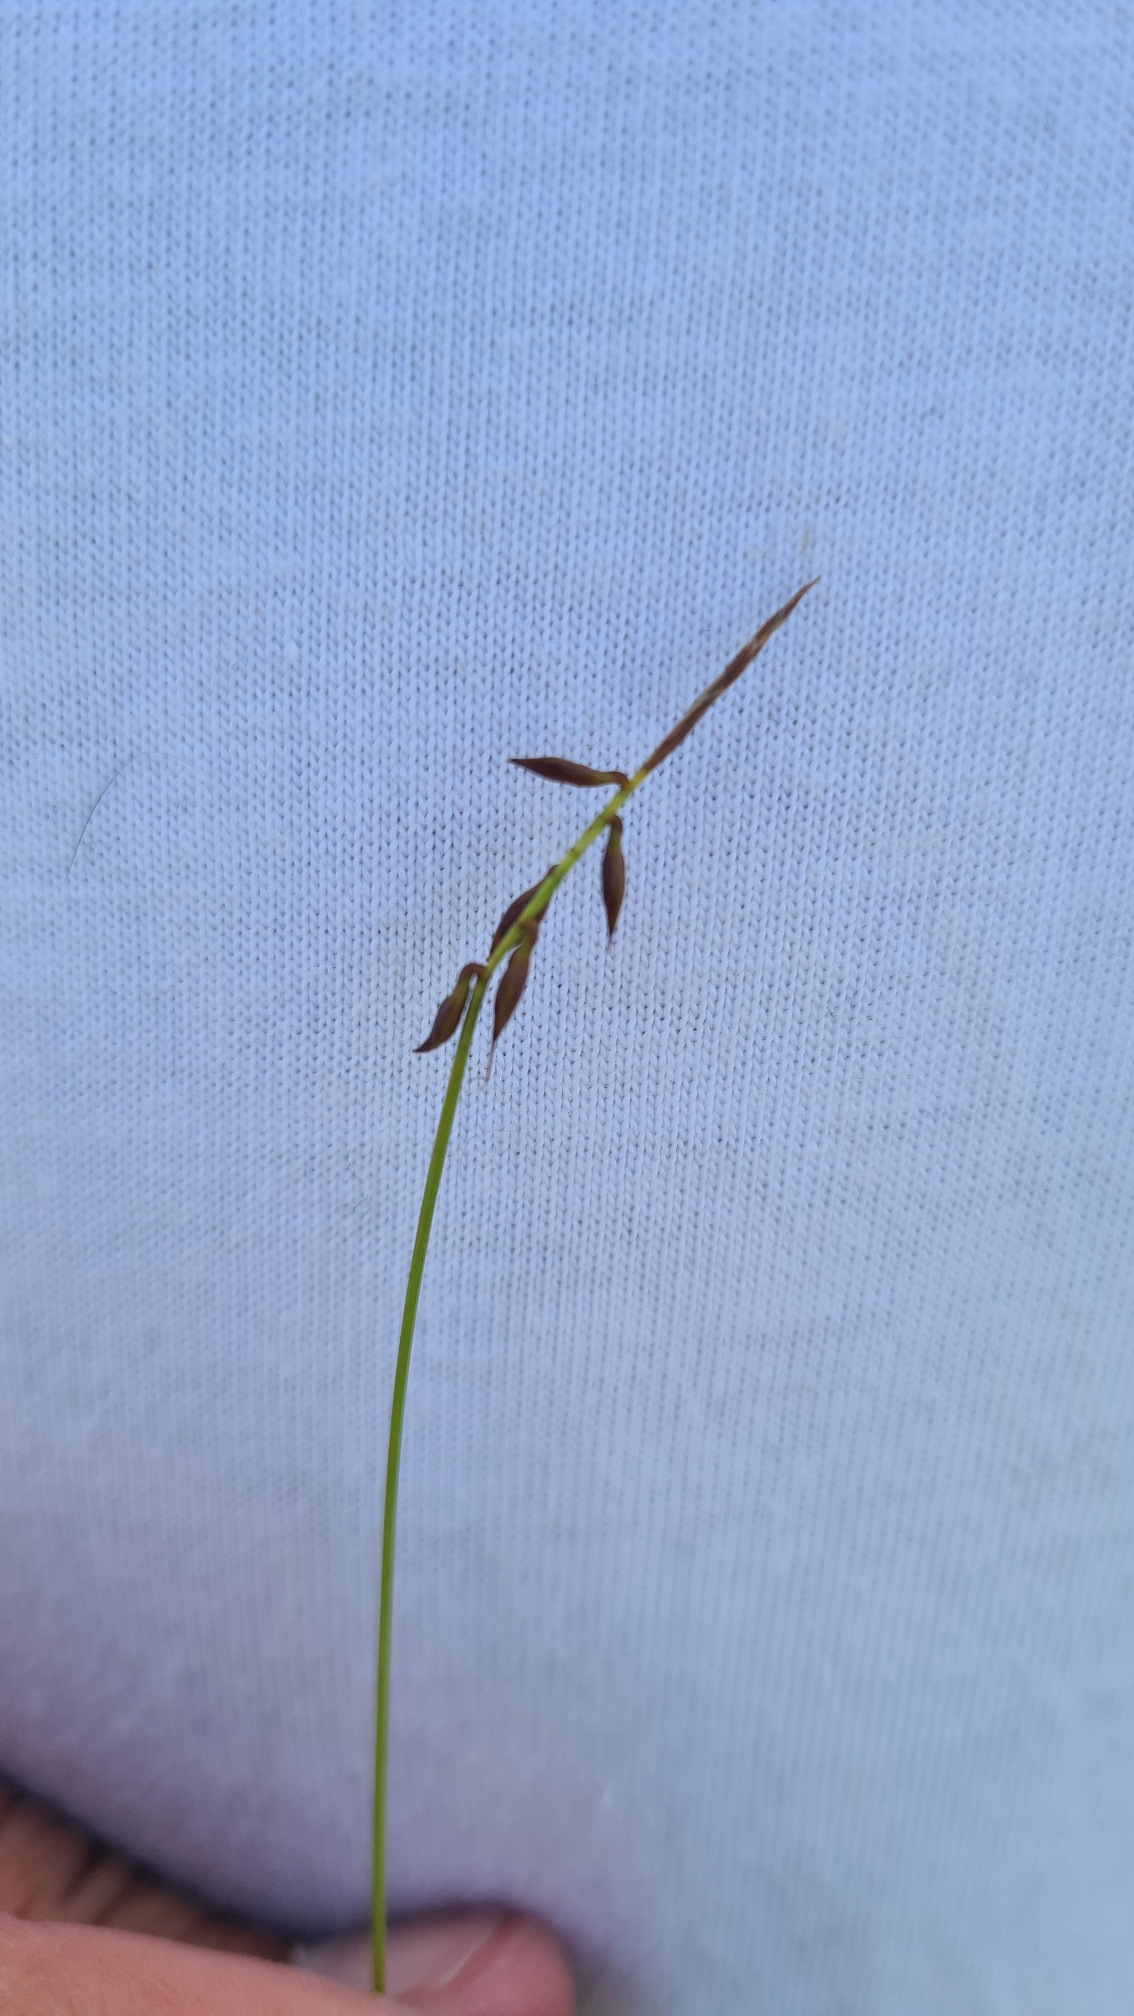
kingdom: Plantae
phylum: Tracheophyta
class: Liliopsida
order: Poales
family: Cyperaceae
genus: Carex
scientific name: Carex pulicaris
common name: Loppe-star
